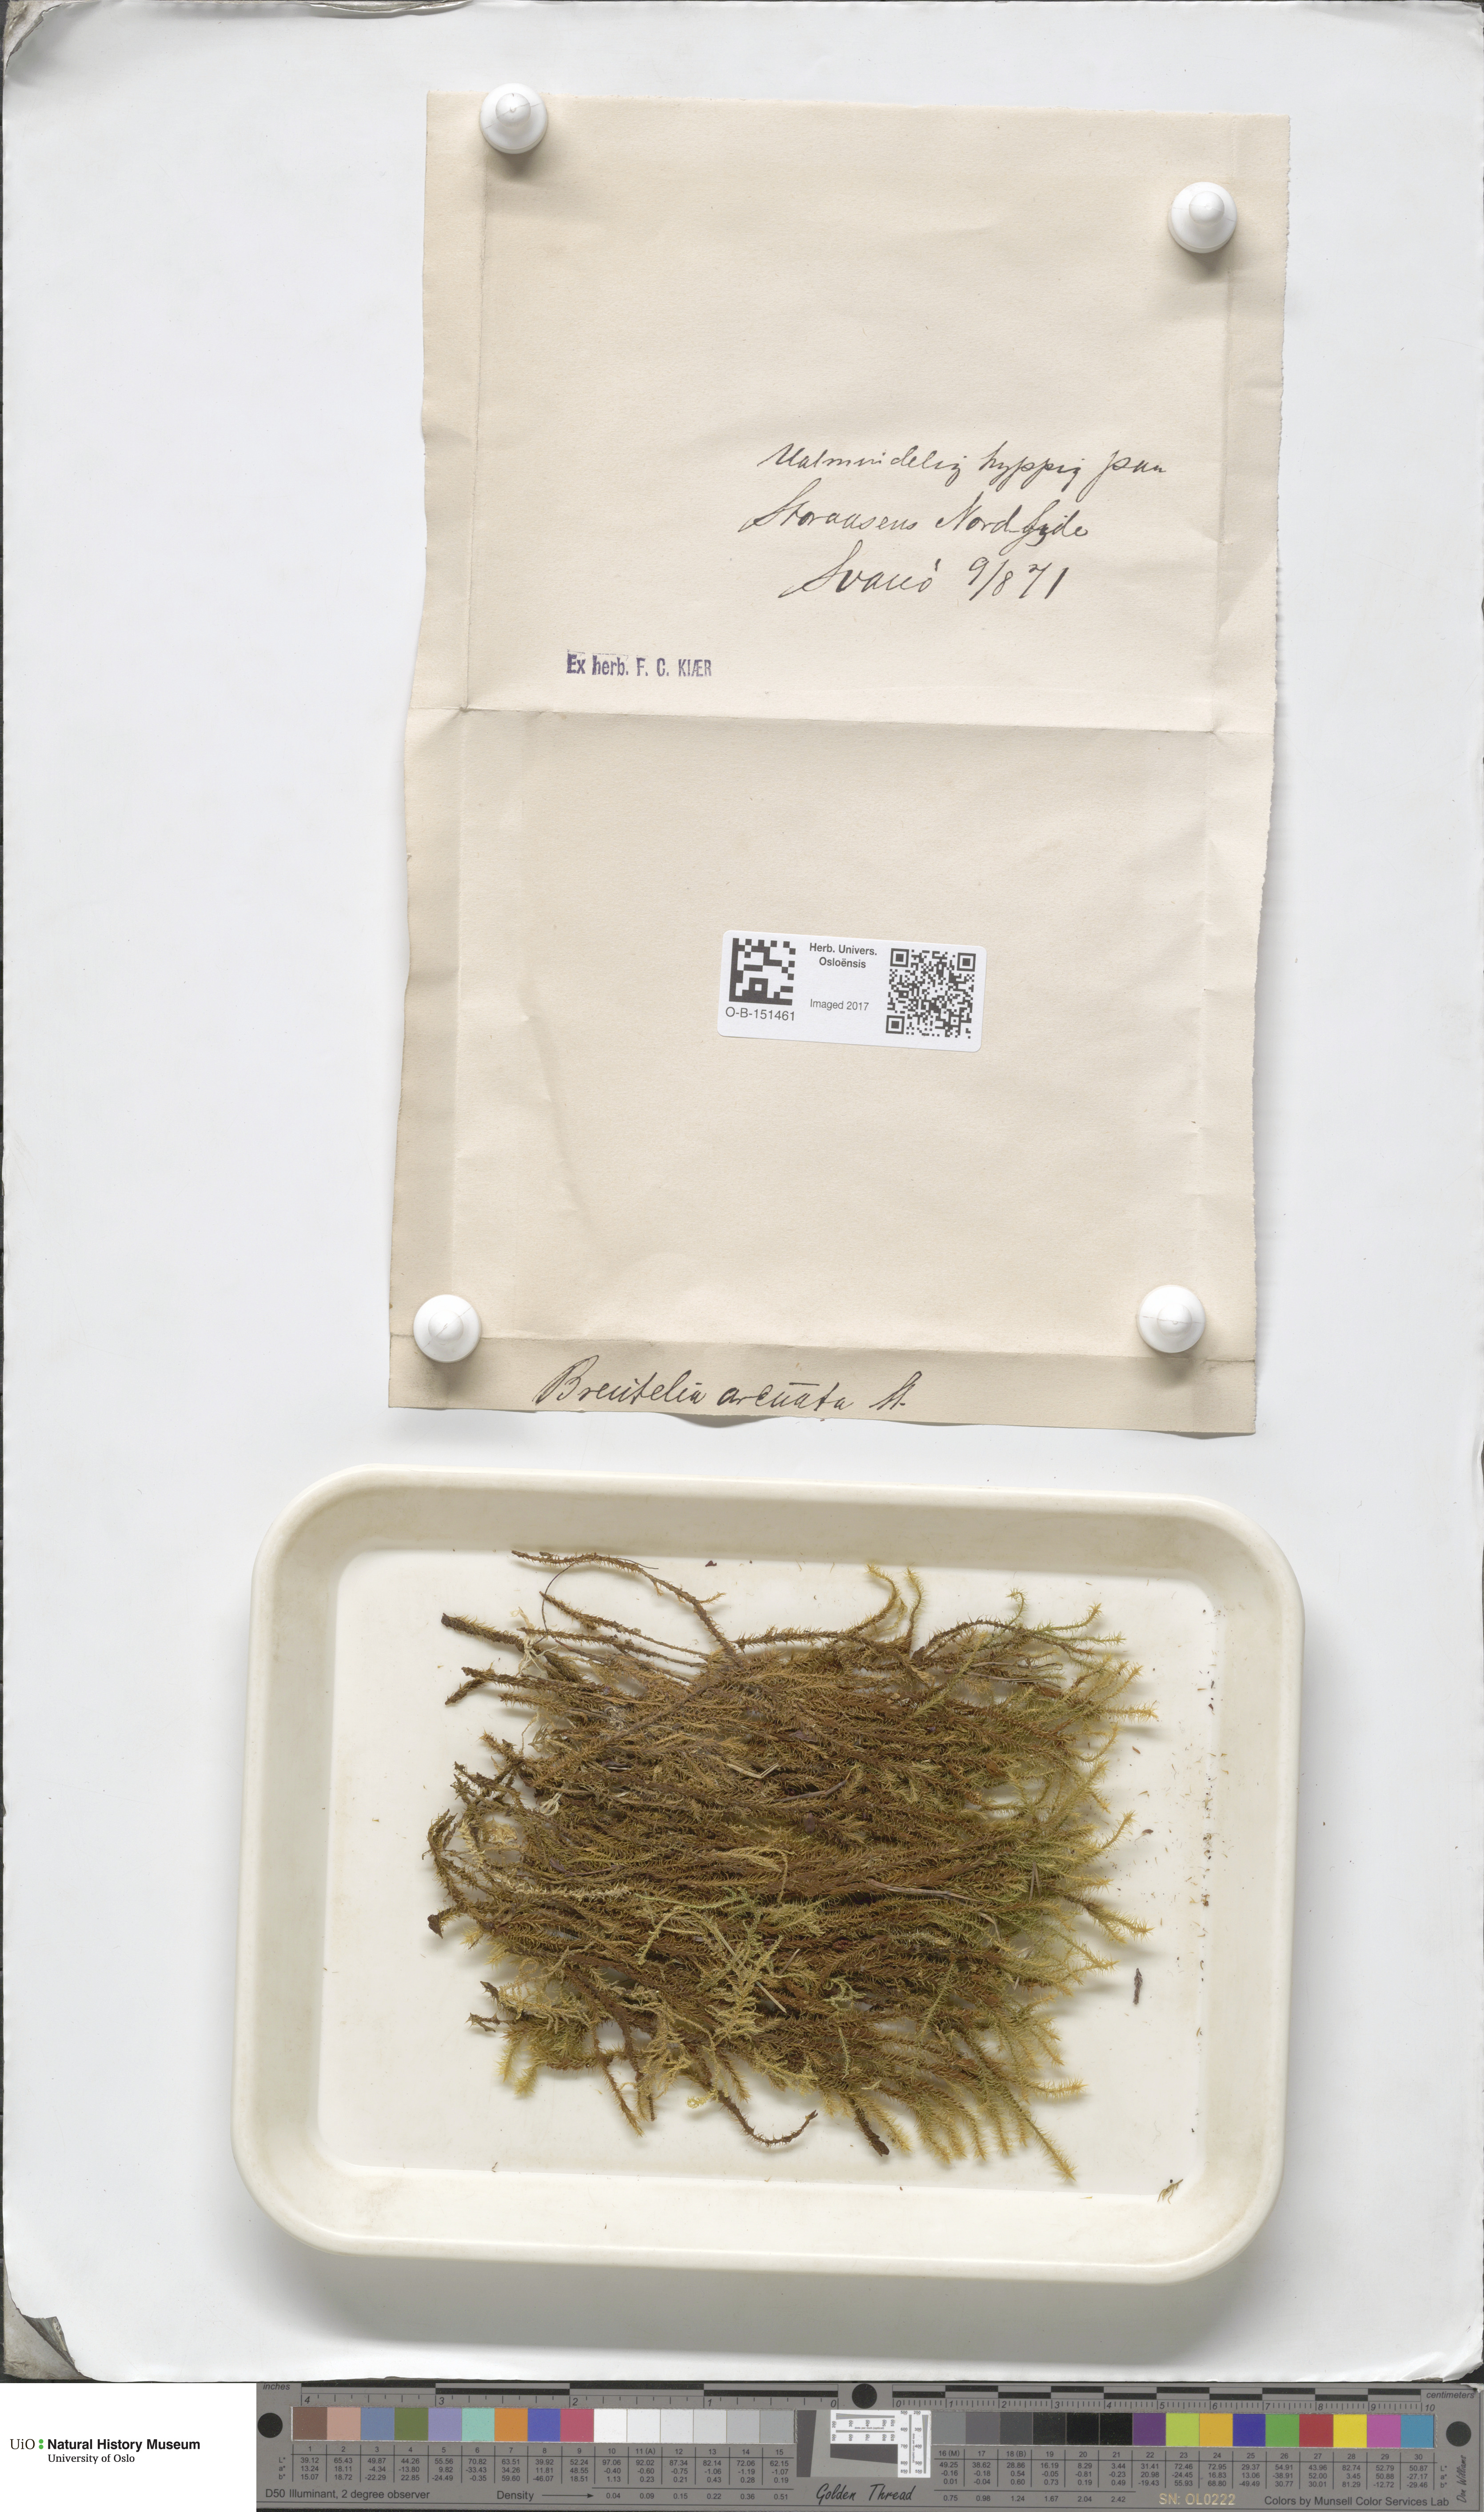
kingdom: Plantae
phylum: Bryophyta
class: Bryopsida
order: Bartramiales
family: Bartramiaceae
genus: Breutelia
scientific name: Breutelia chrysocoma
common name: Bottle-brush moss
